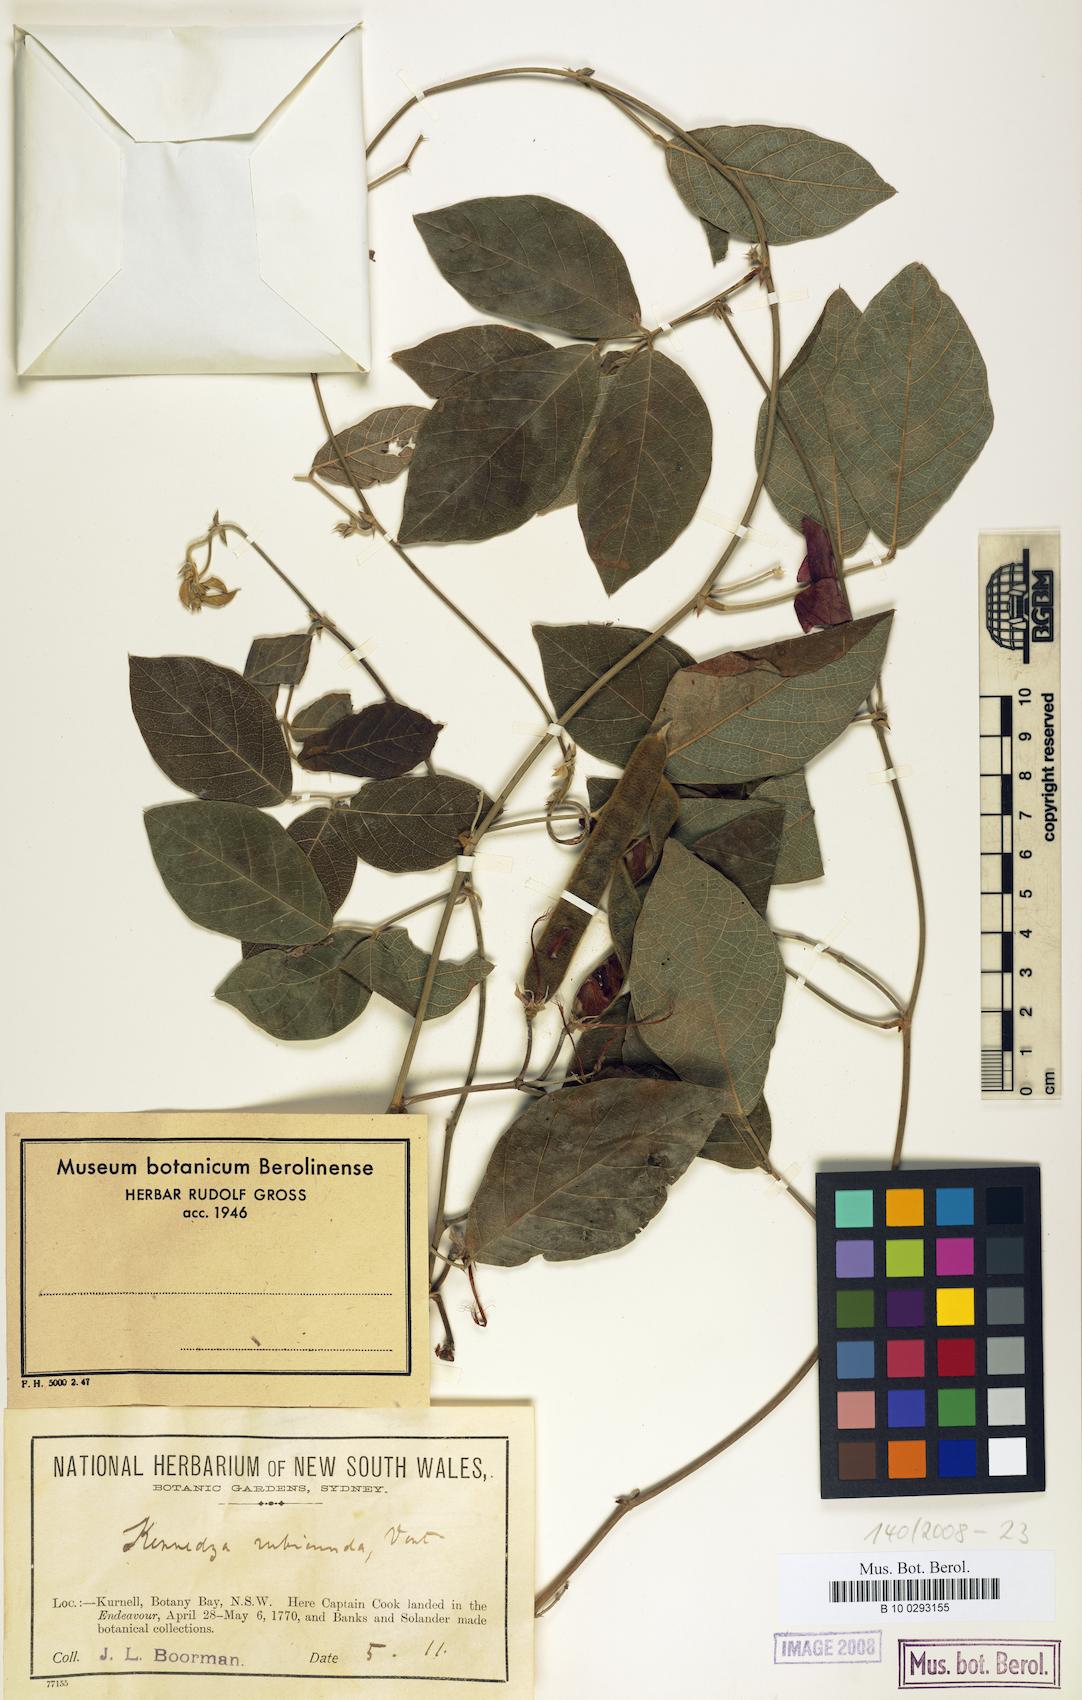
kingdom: Plantae
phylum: Tracheophyta
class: Magnoliopsida
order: Fabales
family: Fabaceae
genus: Kennedia
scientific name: Kennedia rubicunda
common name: Red kennedy-pea
